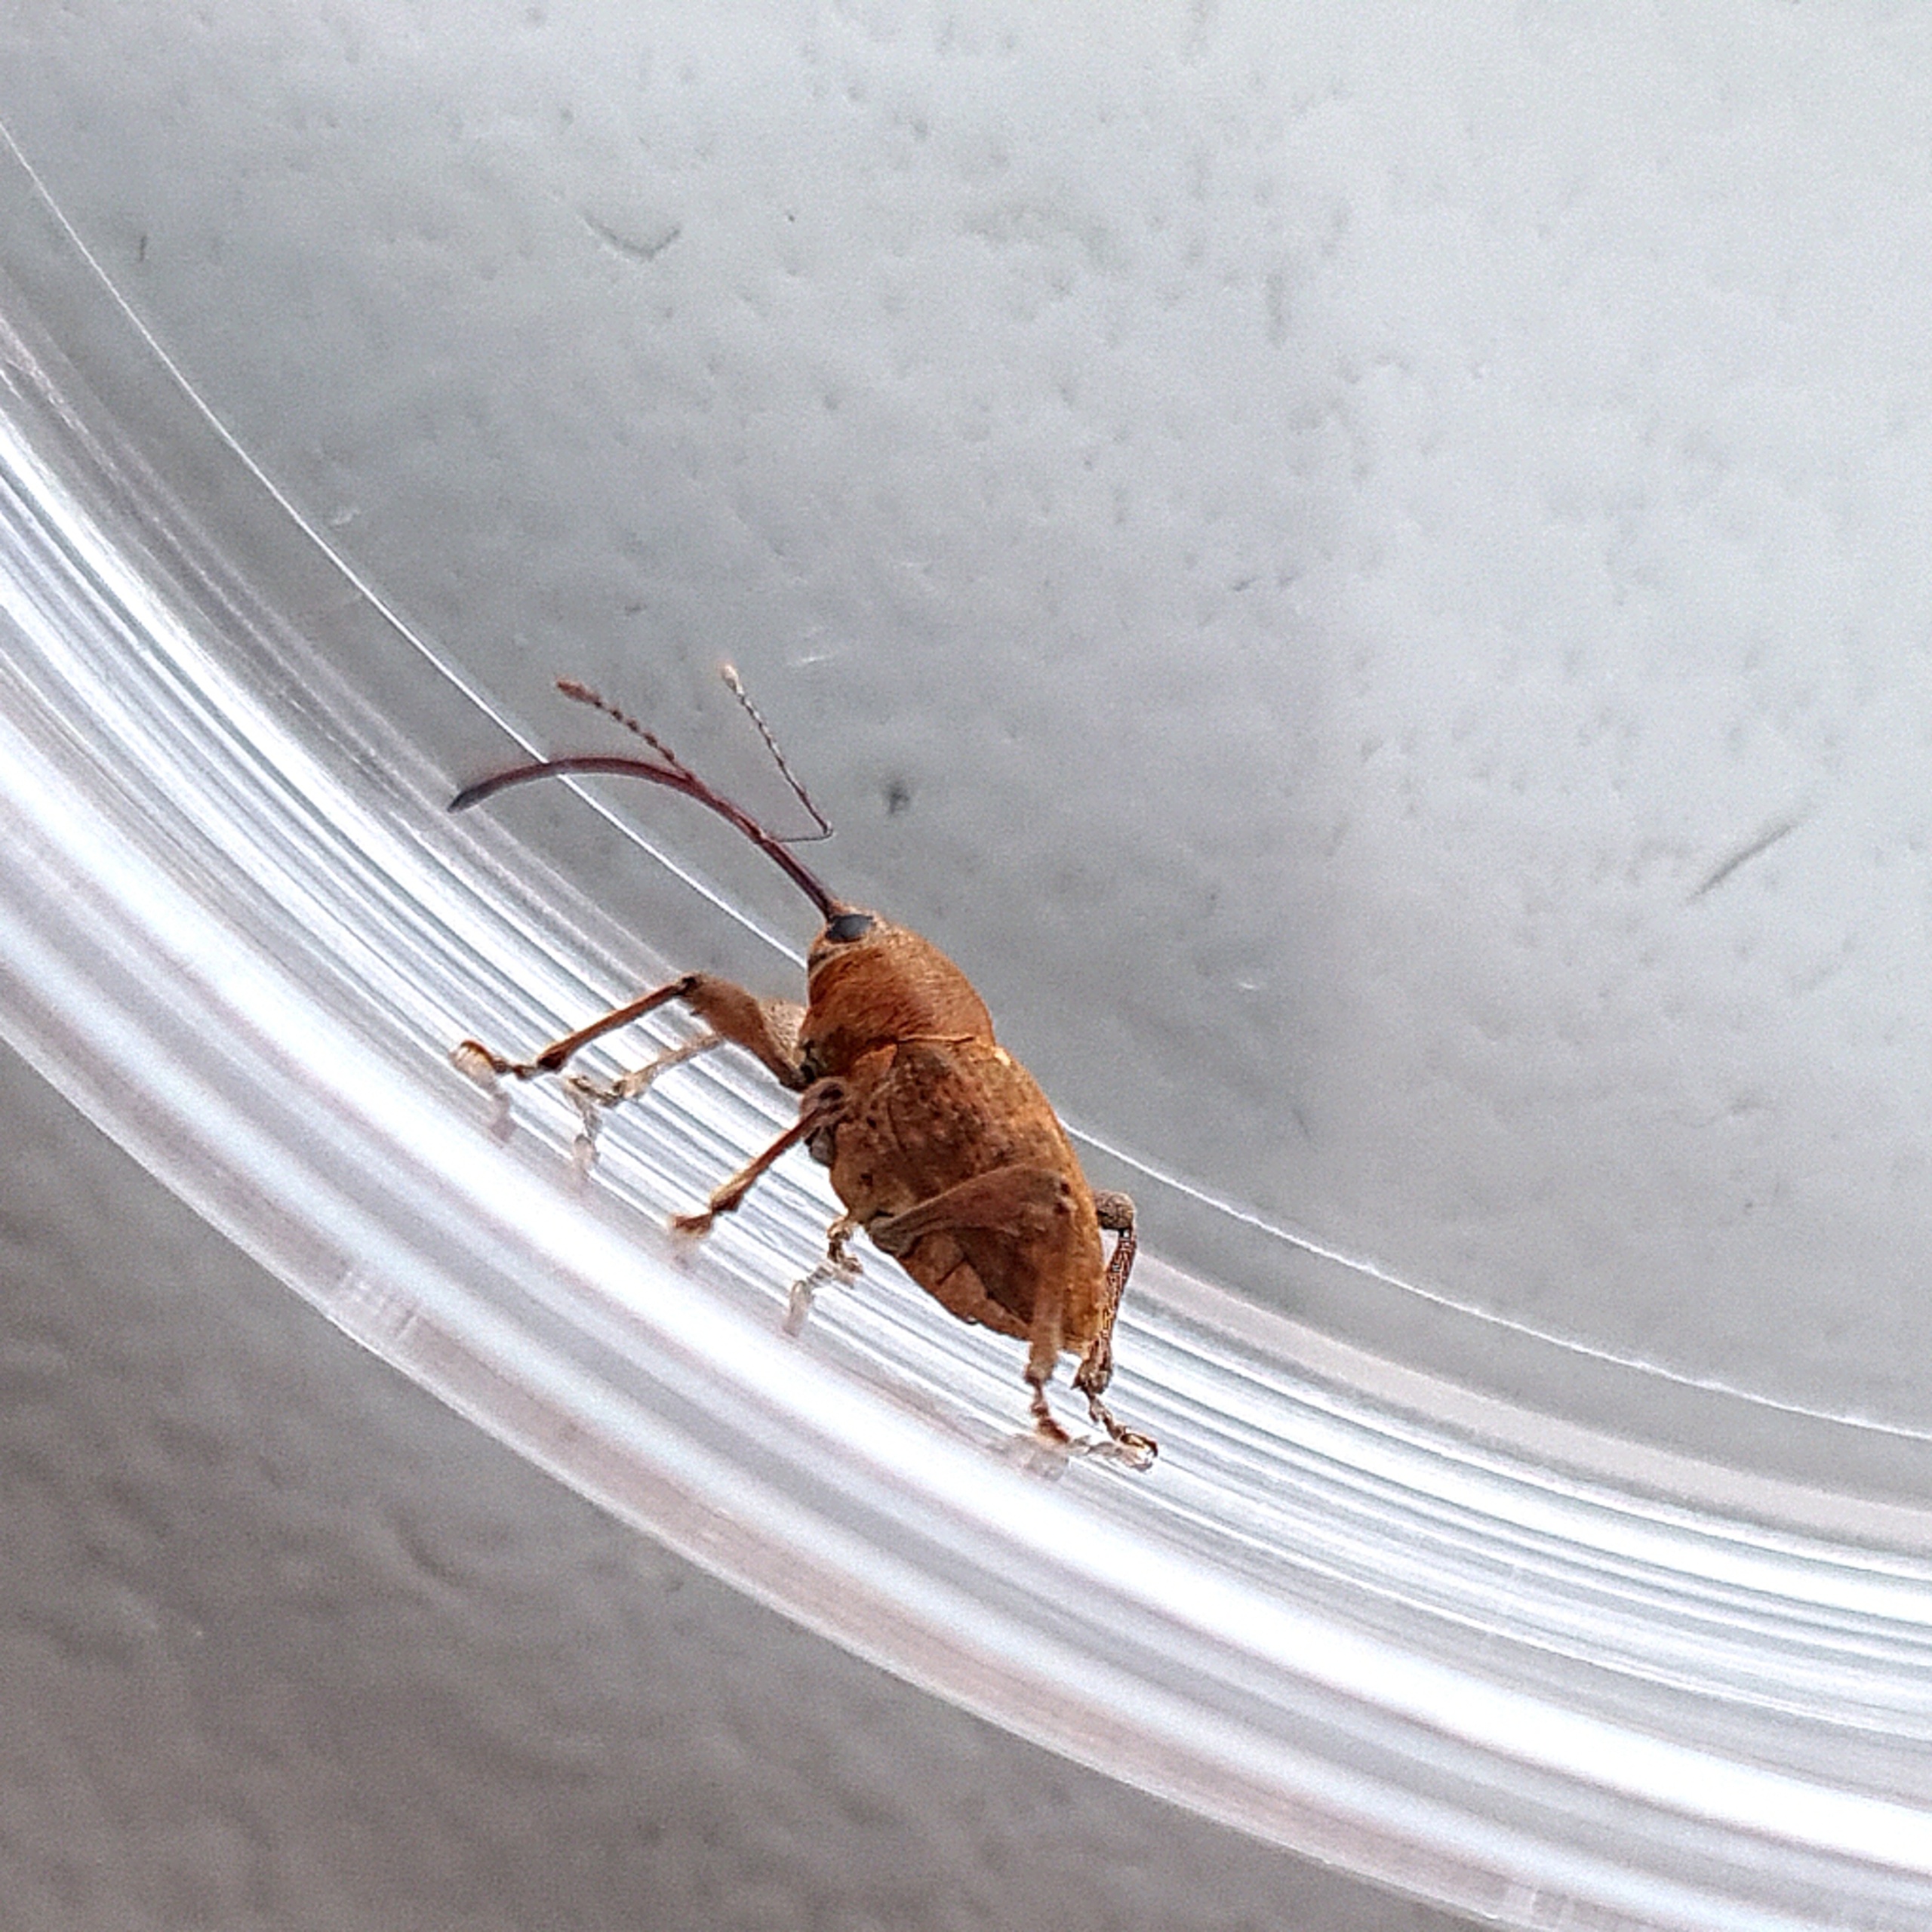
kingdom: Animalia
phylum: Arthropoda
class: Insecta
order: Coleoptera
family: Curculionidae
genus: Curculio
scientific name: Curculio glandium
